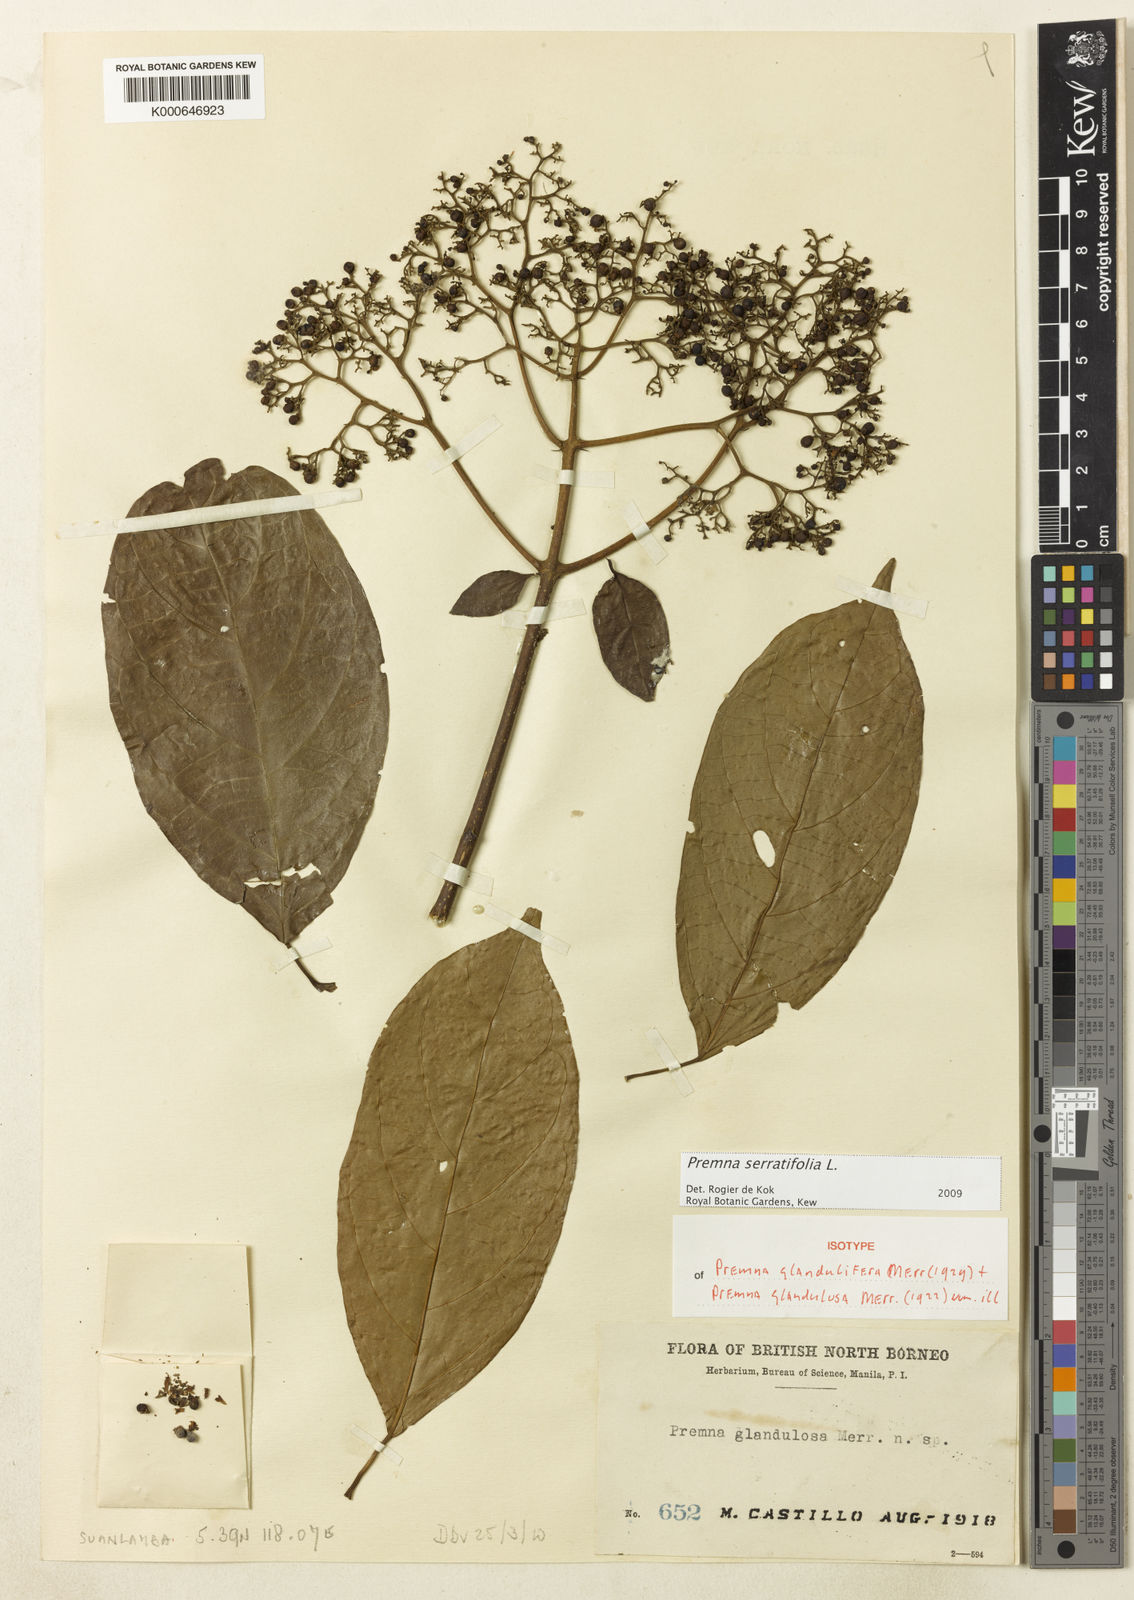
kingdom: Plantae
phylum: Tracheophyta
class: Magnoliopsida
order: Lamiales
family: Lamiaceae
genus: Premna
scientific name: Premna serratifolia
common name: Bastard guelder
